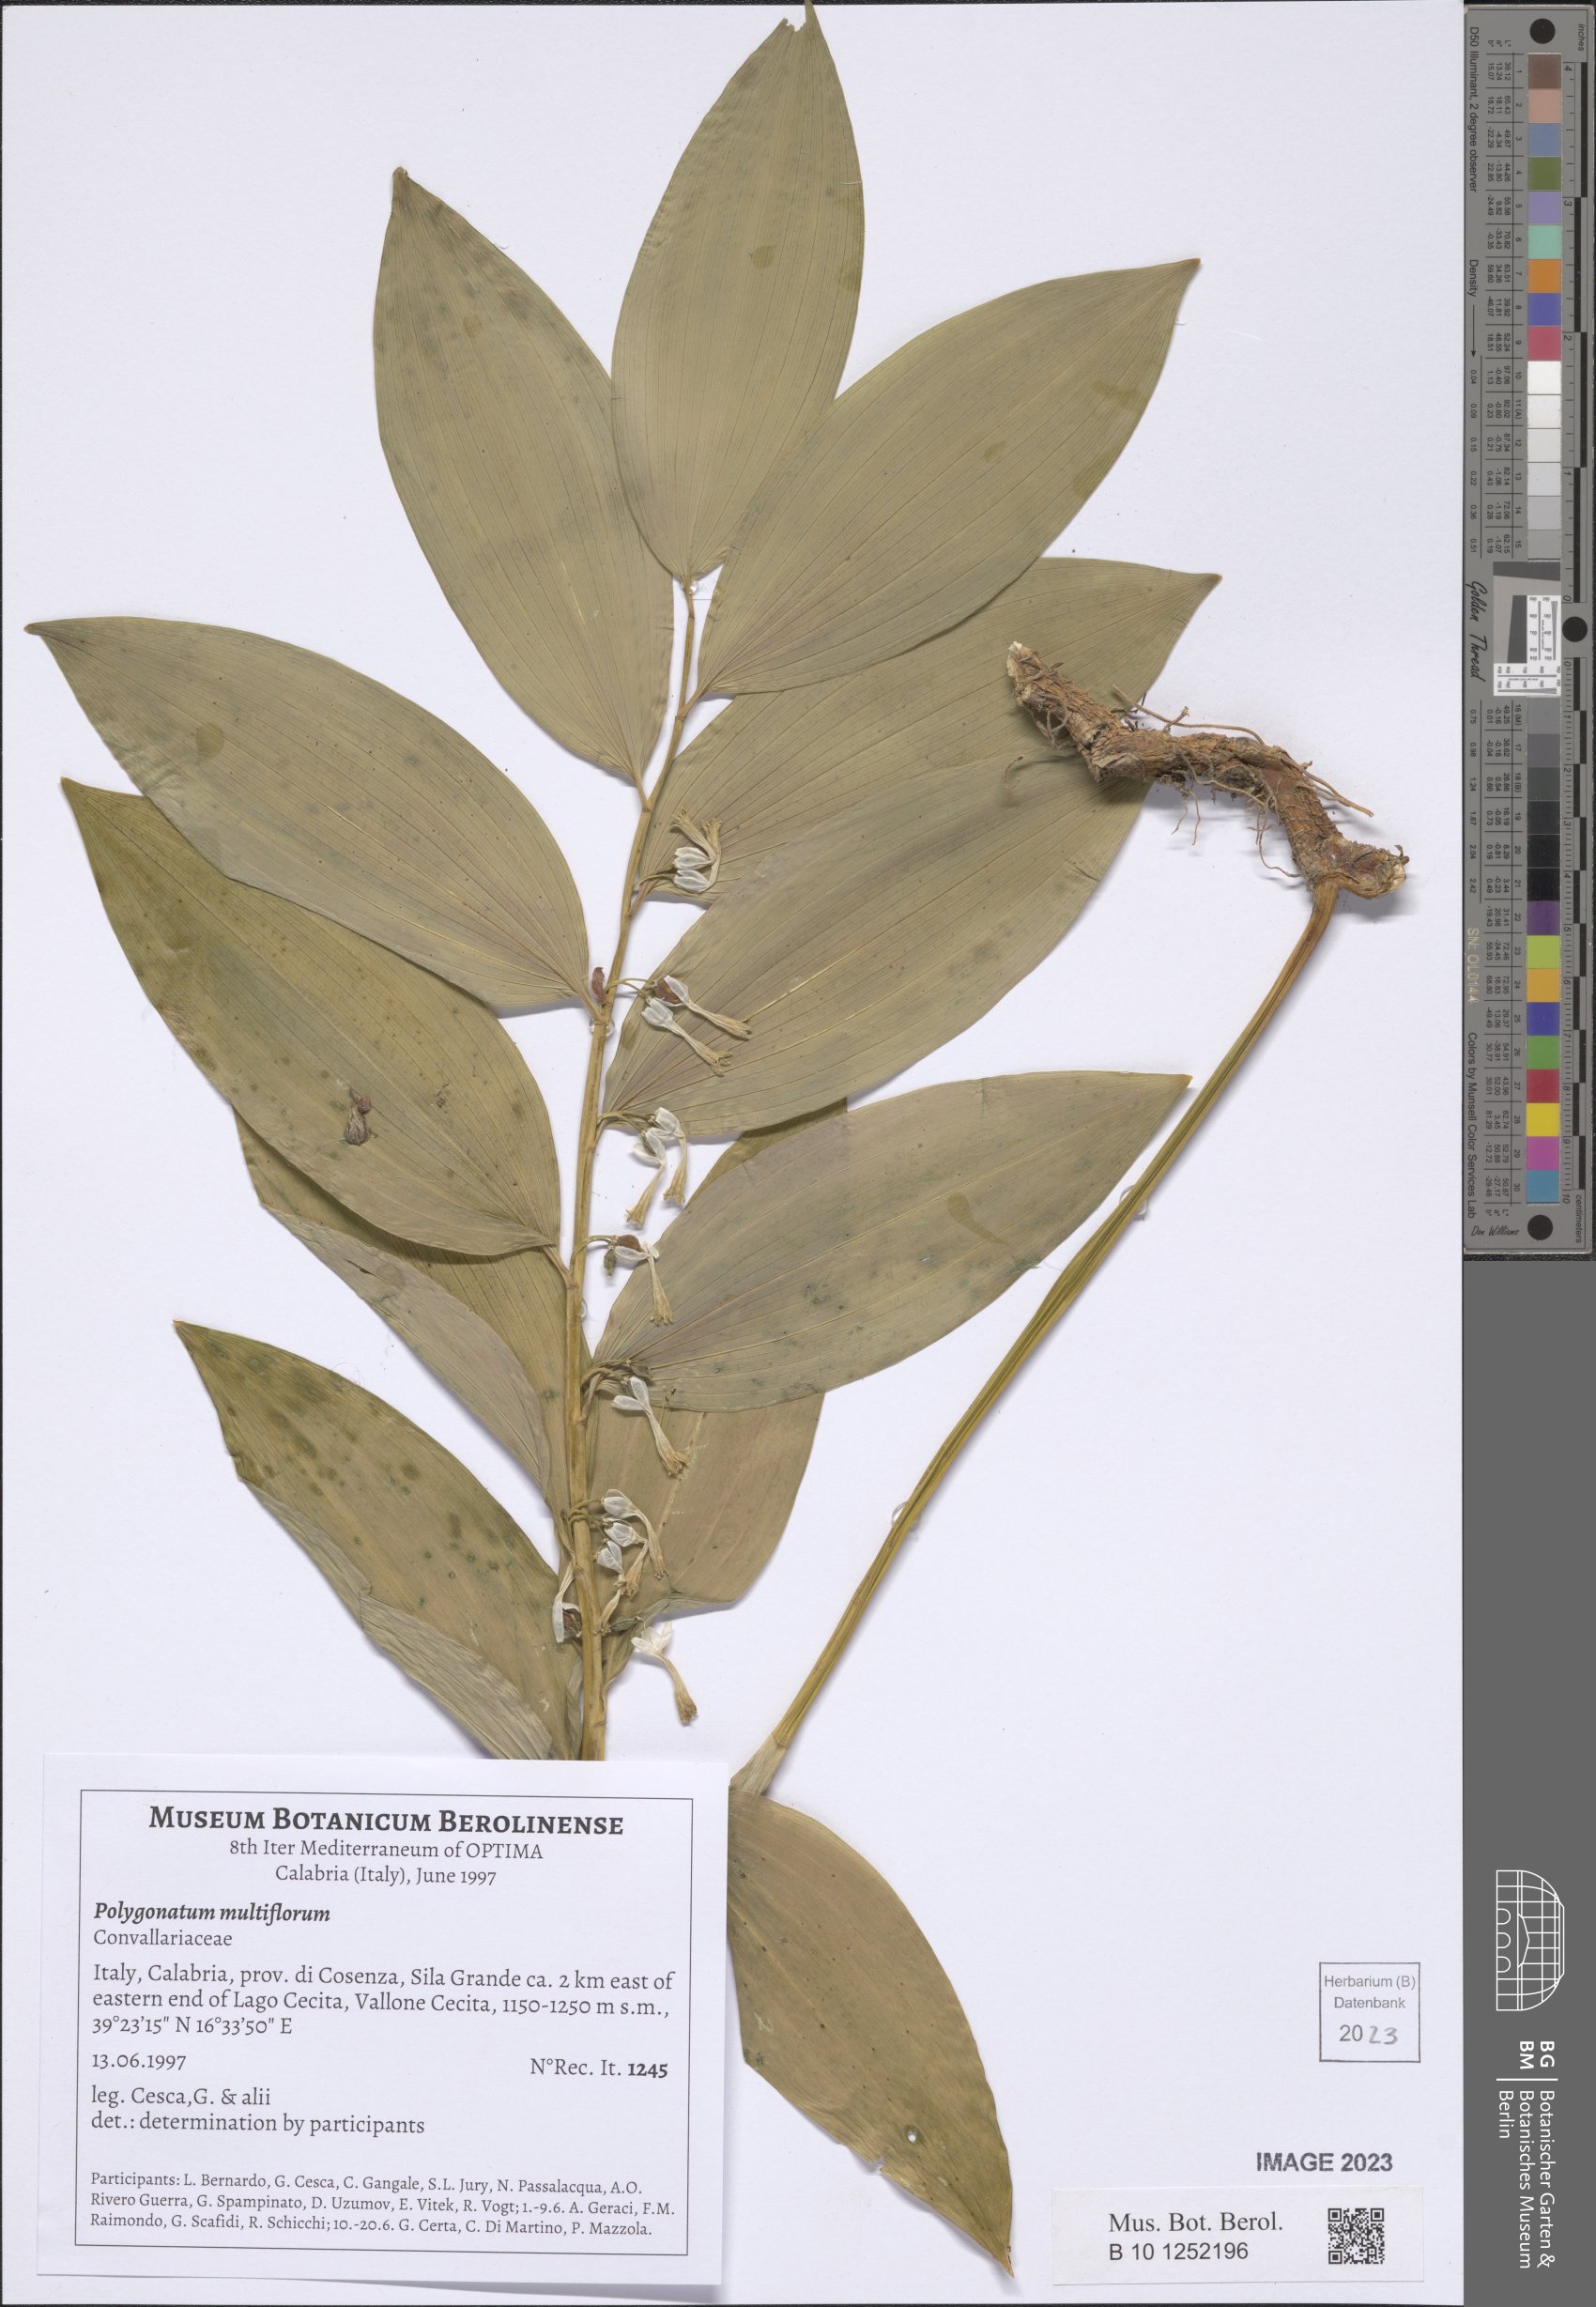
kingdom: Plantae
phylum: Tracheophyta
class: Liliopsida
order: Asparagales
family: Asparagaceae
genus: Polygonatum
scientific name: Polygonatum multiflorum
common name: Solomon's-seal
